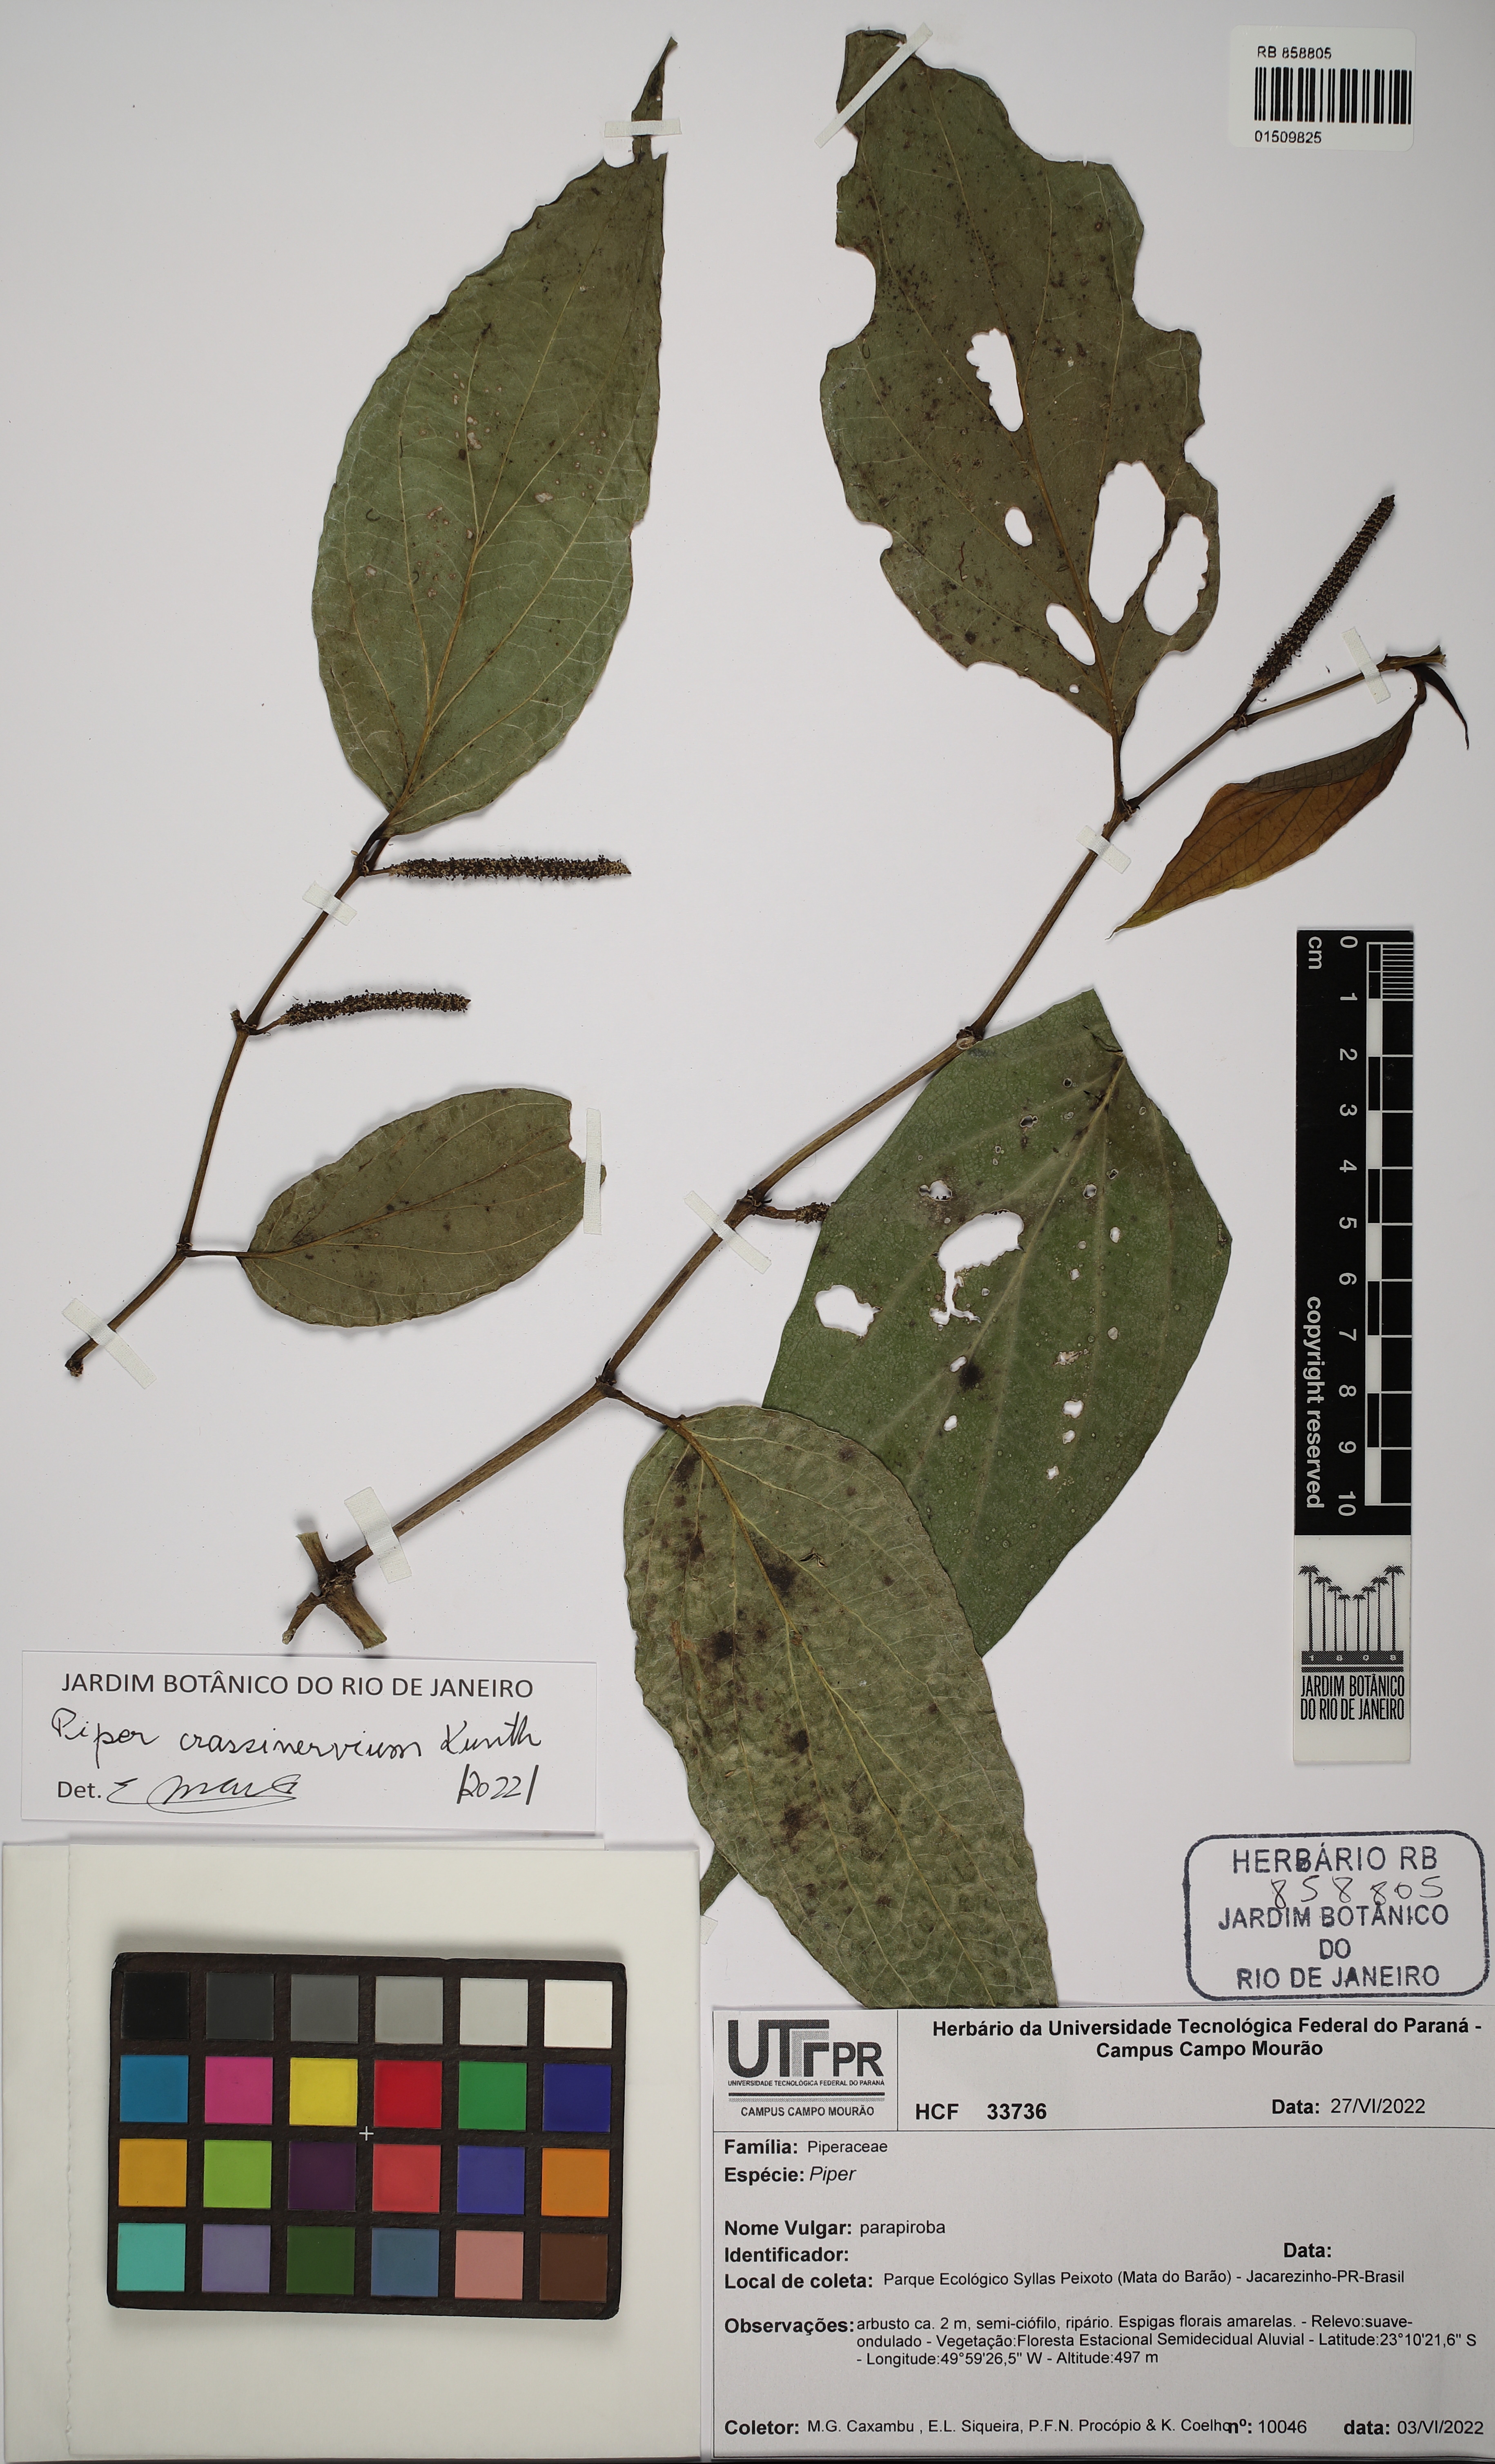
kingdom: Plantae
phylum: Tracheophyta
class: Magnoliopsida
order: Piperales
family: Piperaceae
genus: Piper
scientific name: Piper crassinervium
